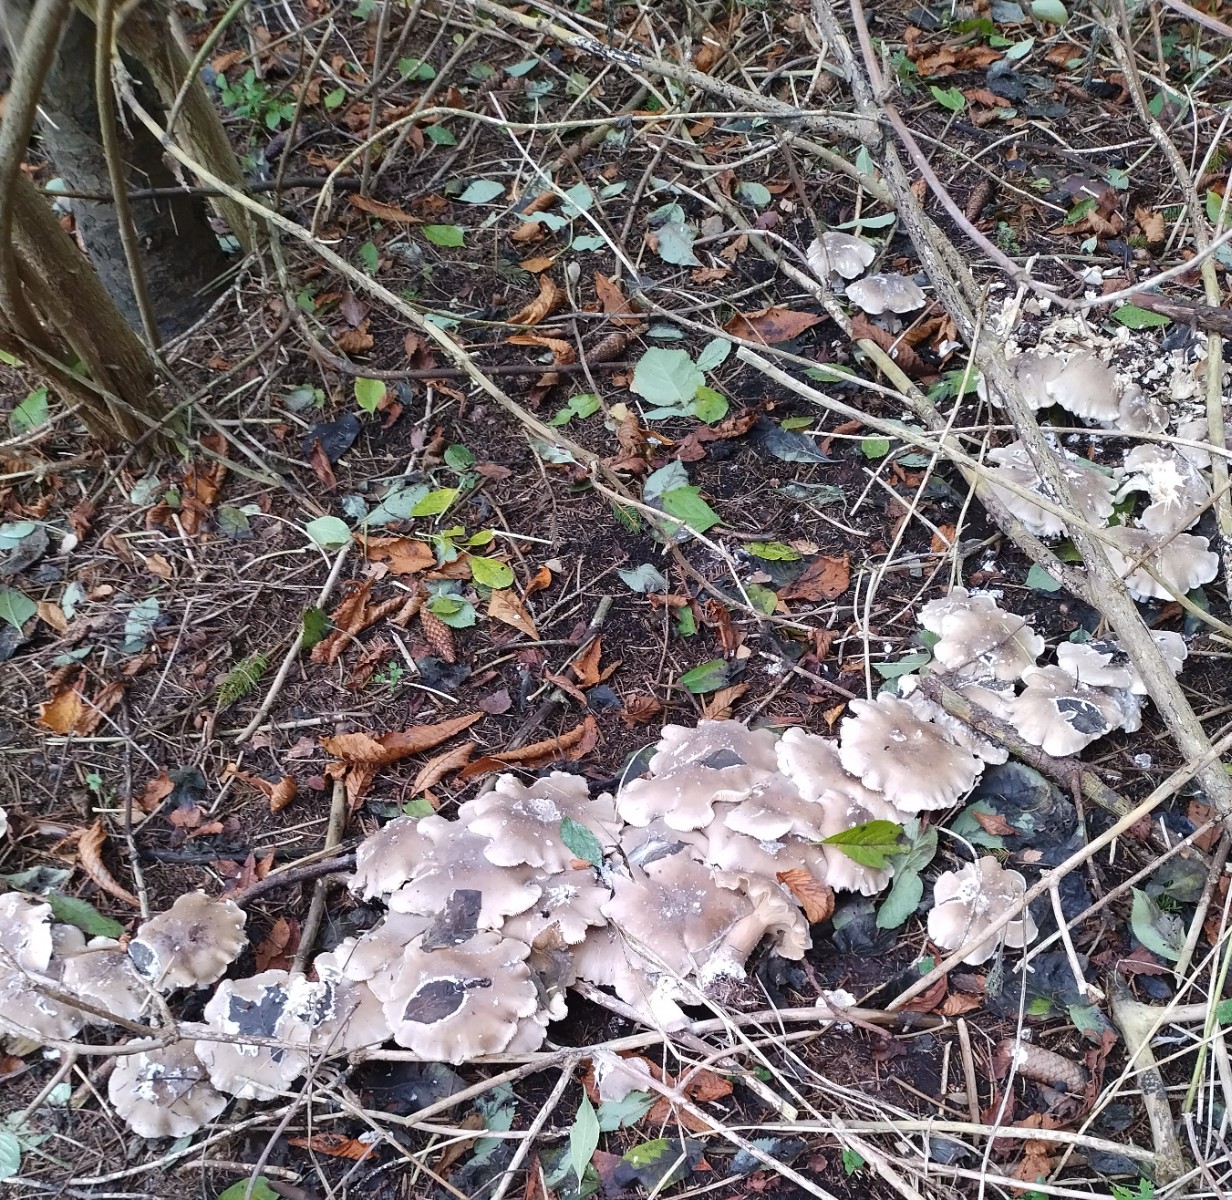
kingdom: Fungi
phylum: Basidiomycota
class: Agaricomycetes
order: Agaricales
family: Tricholomataceae
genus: Clitocybe
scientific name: Clitocybe nebularis
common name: tåge-tragthat
